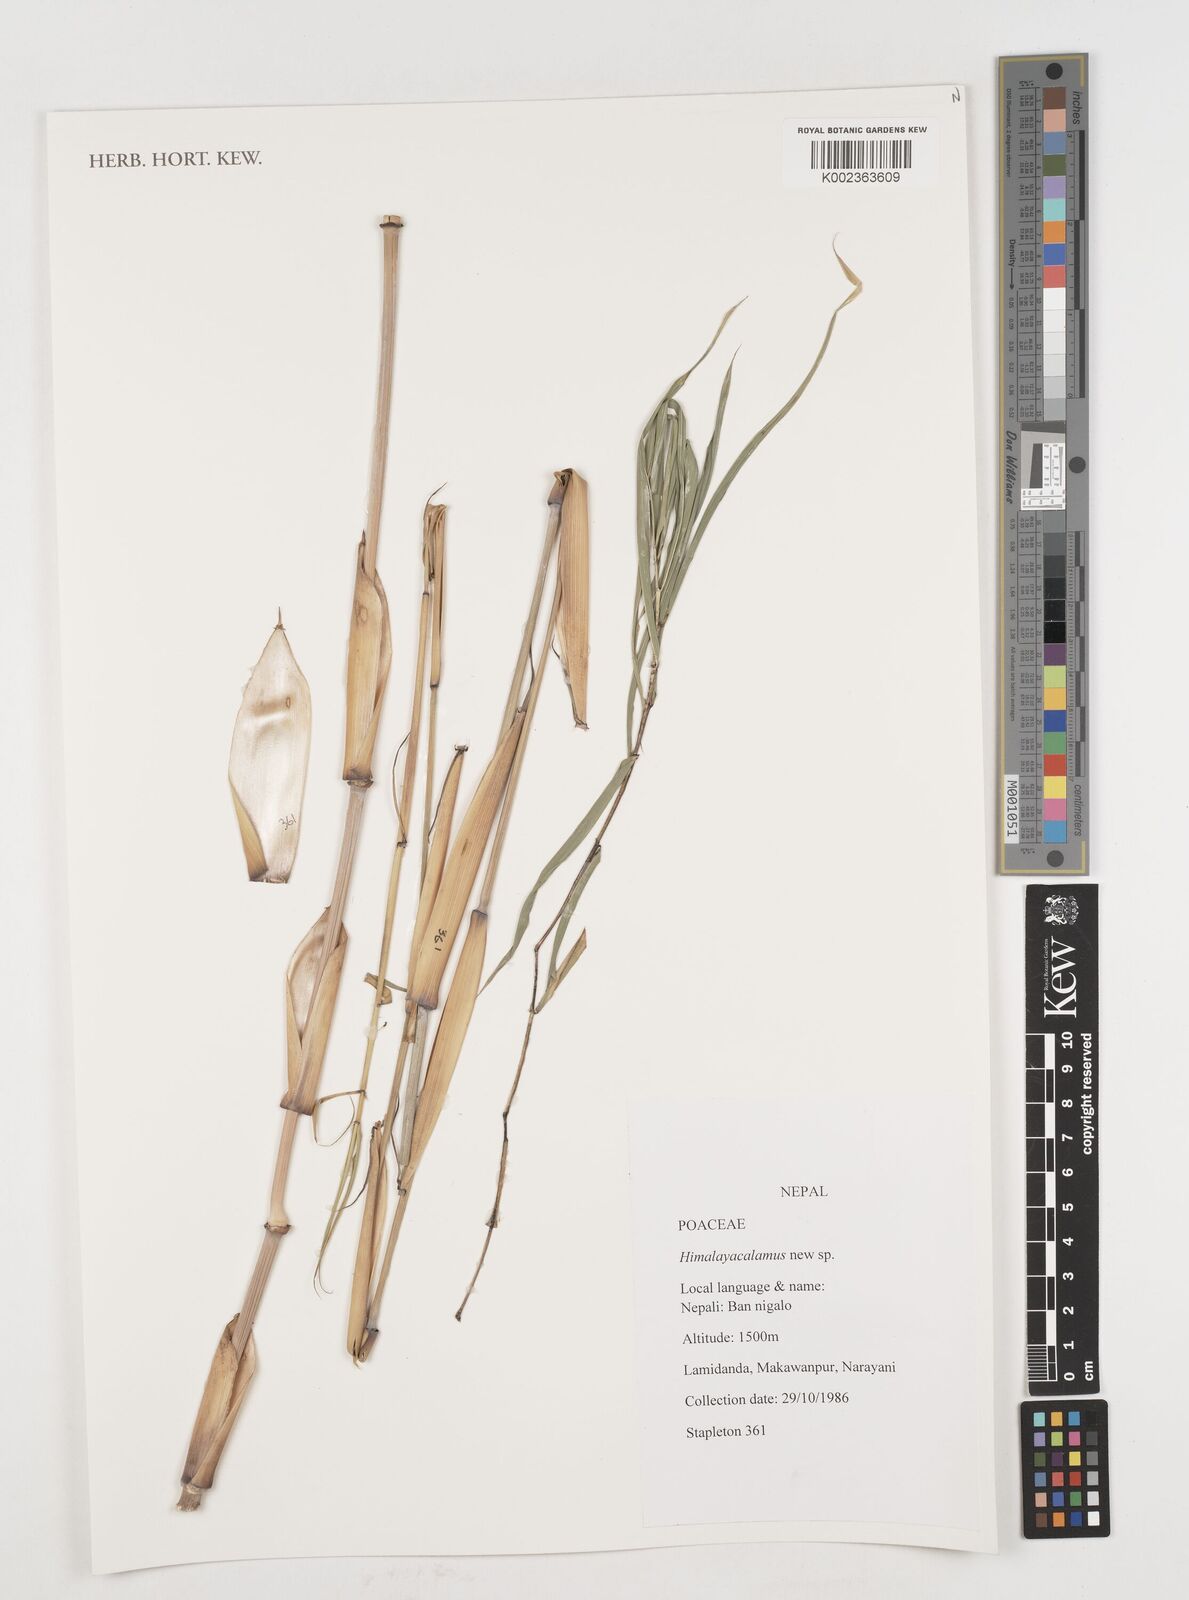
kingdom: Plantae
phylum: Tracheophyta
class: Liliopsida
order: Poales
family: Poaceae
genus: Himalayacalamus
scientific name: Himalayacalamus
